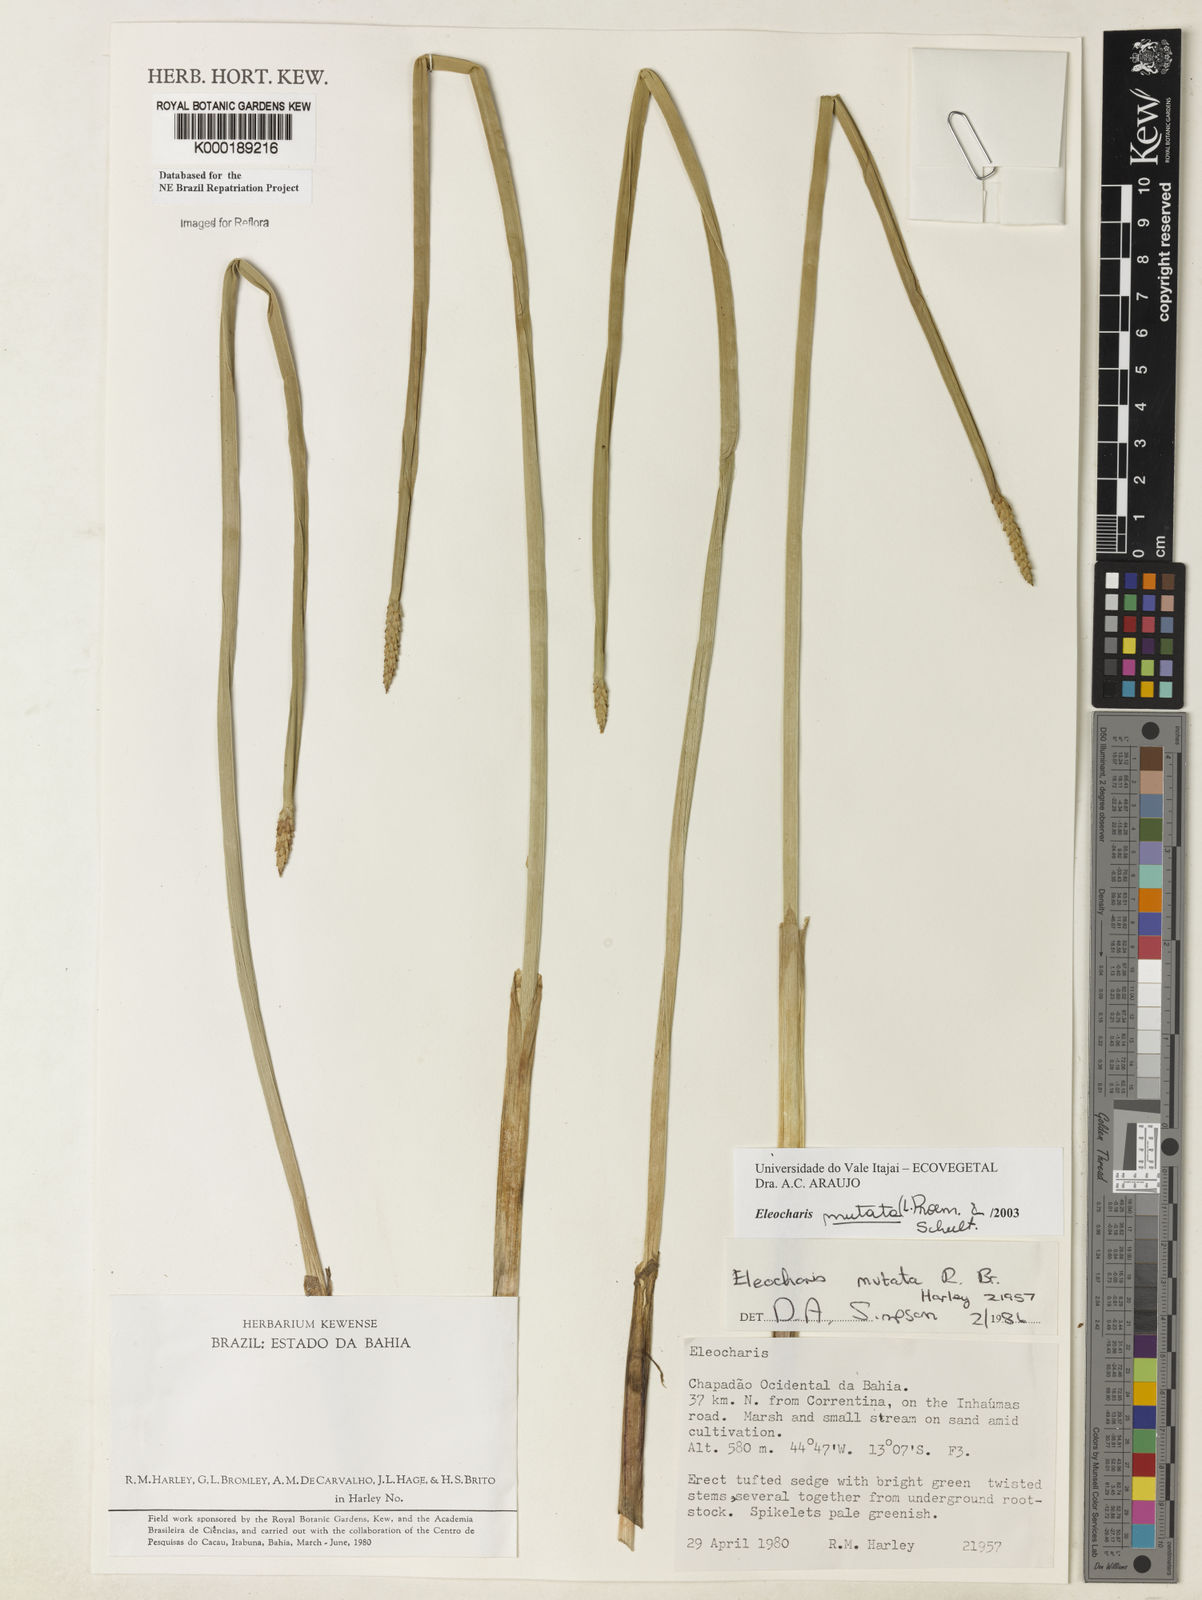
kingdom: Plantae
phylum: Tracheophyta
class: Liliopsida
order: Poales
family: Cyperaceae
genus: Eleocharis
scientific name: Eleocharis mutata
